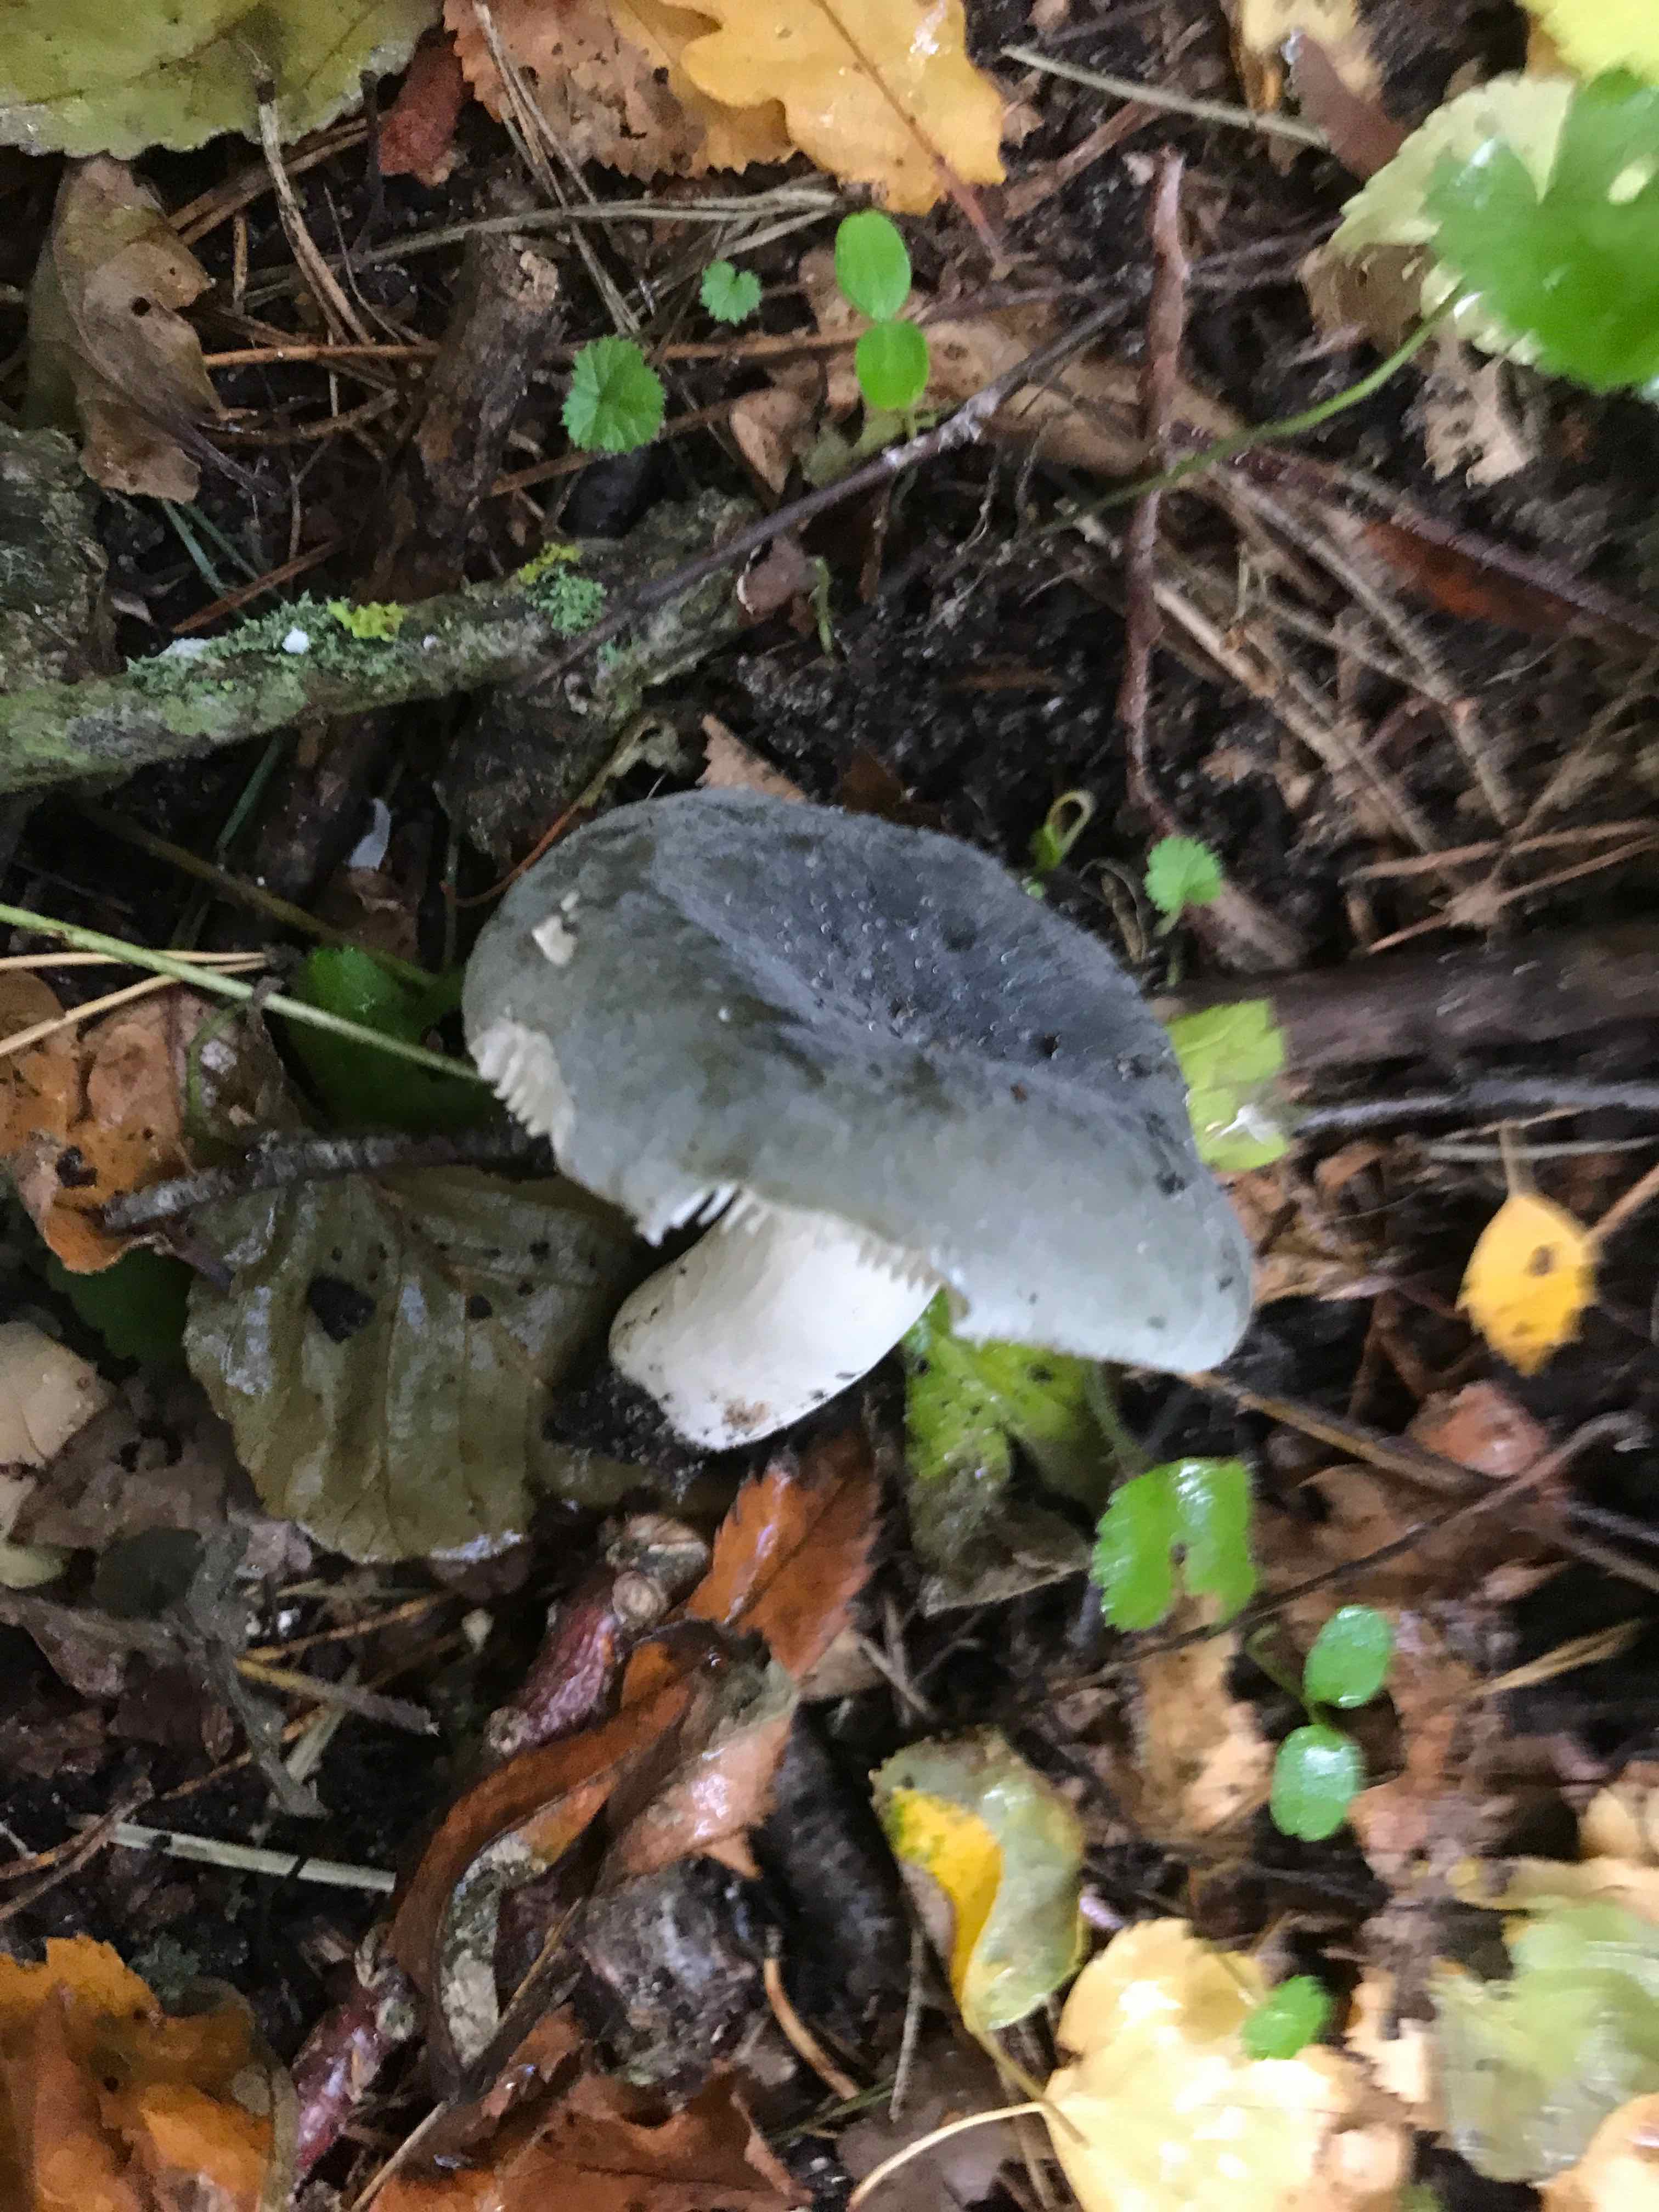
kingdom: Fungi
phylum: Basidiomycota
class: Agaricomycetes
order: Russulales
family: Russulaceae
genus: Russula
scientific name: Russula parazurea
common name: blågrå skørhat
